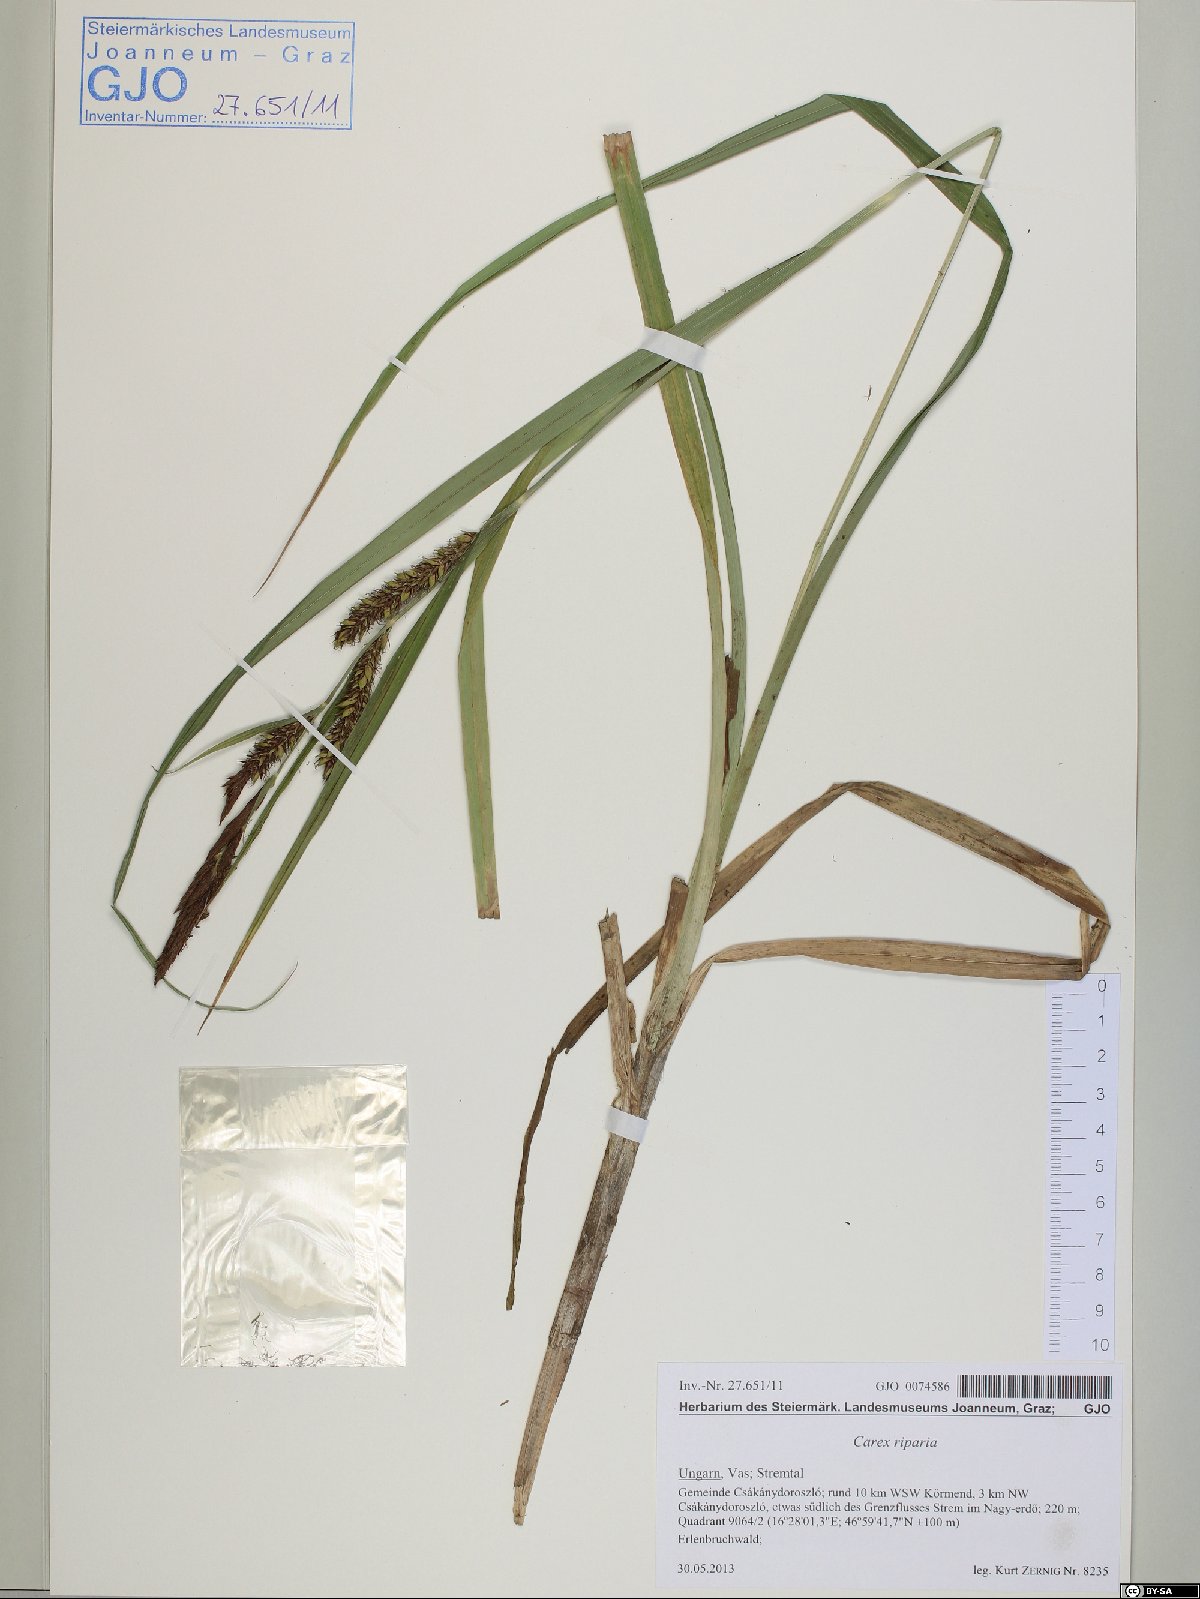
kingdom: Plantae
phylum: Tracheophyta
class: Liliopsida
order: Poales
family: Cyperaceae
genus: Carex
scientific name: Carex riparia
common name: Greater pond-sedge
